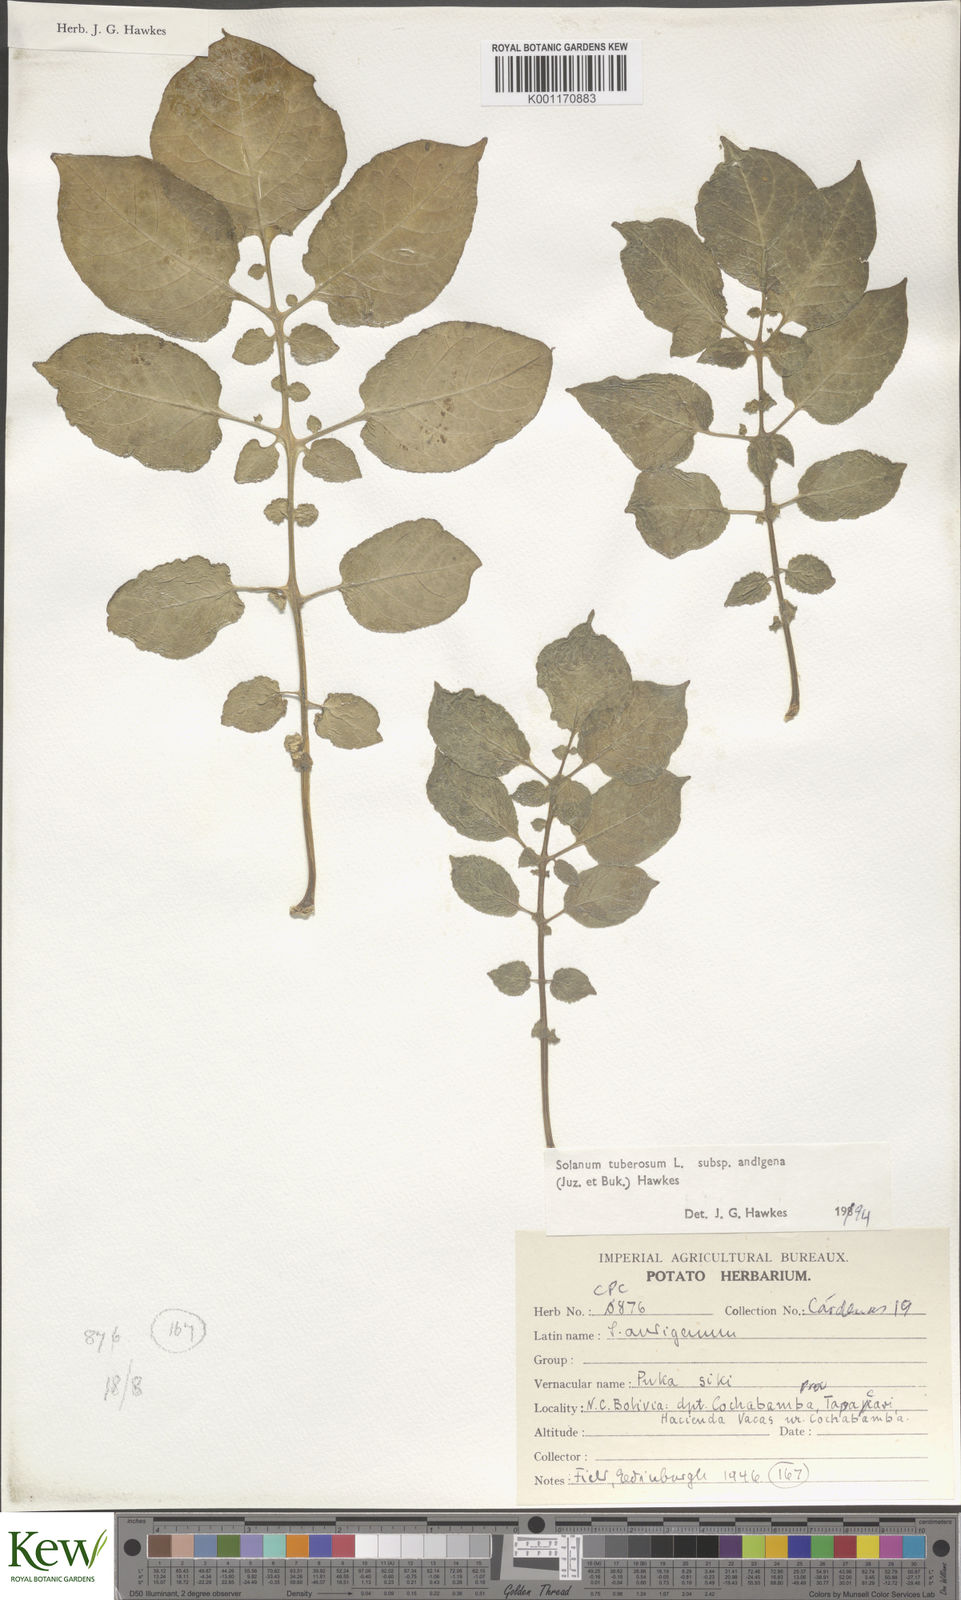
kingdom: Plantae
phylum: Tracheophyta
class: Magnoliopsida
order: Solanales
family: Solanaceae
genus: Solanum
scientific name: Solanum tuberosum
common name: Potato
